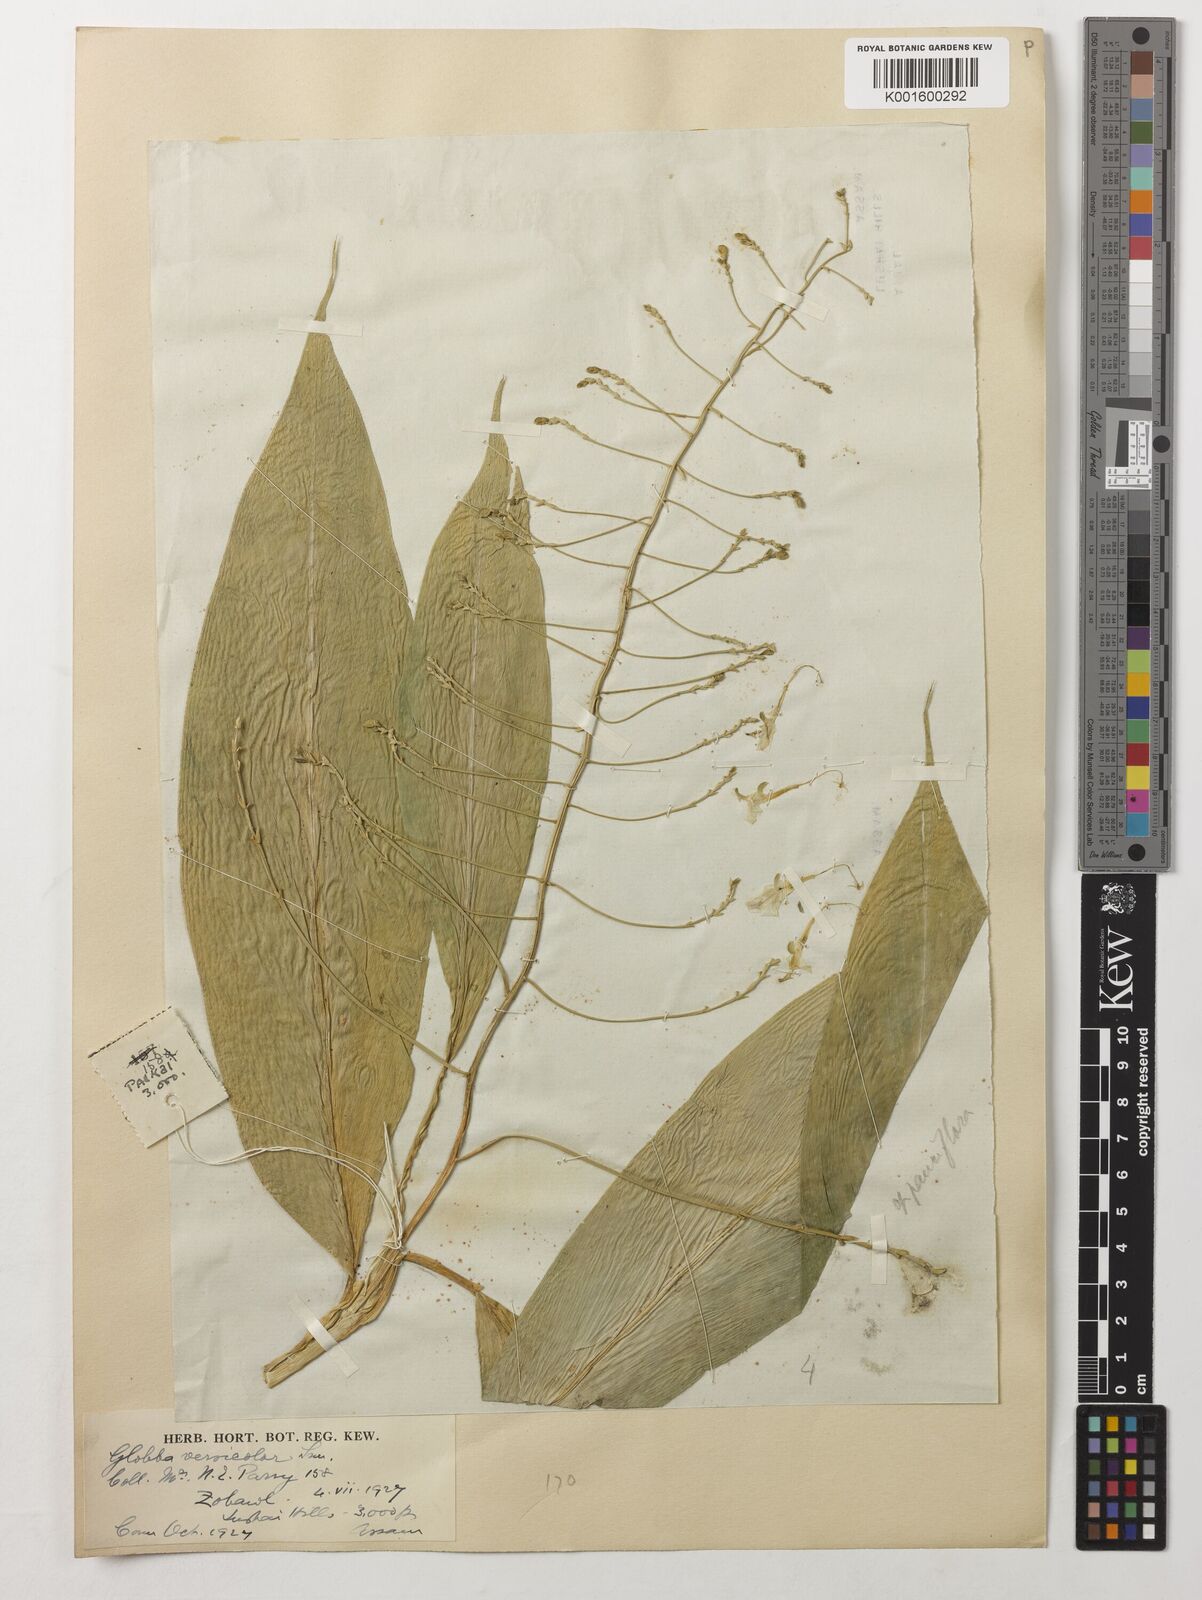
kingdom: Plantae
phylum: Tracheophyta
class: Liliopsida
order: Zingiberales
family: Zingiberaceae
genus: Globba
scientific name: Globba pendula
